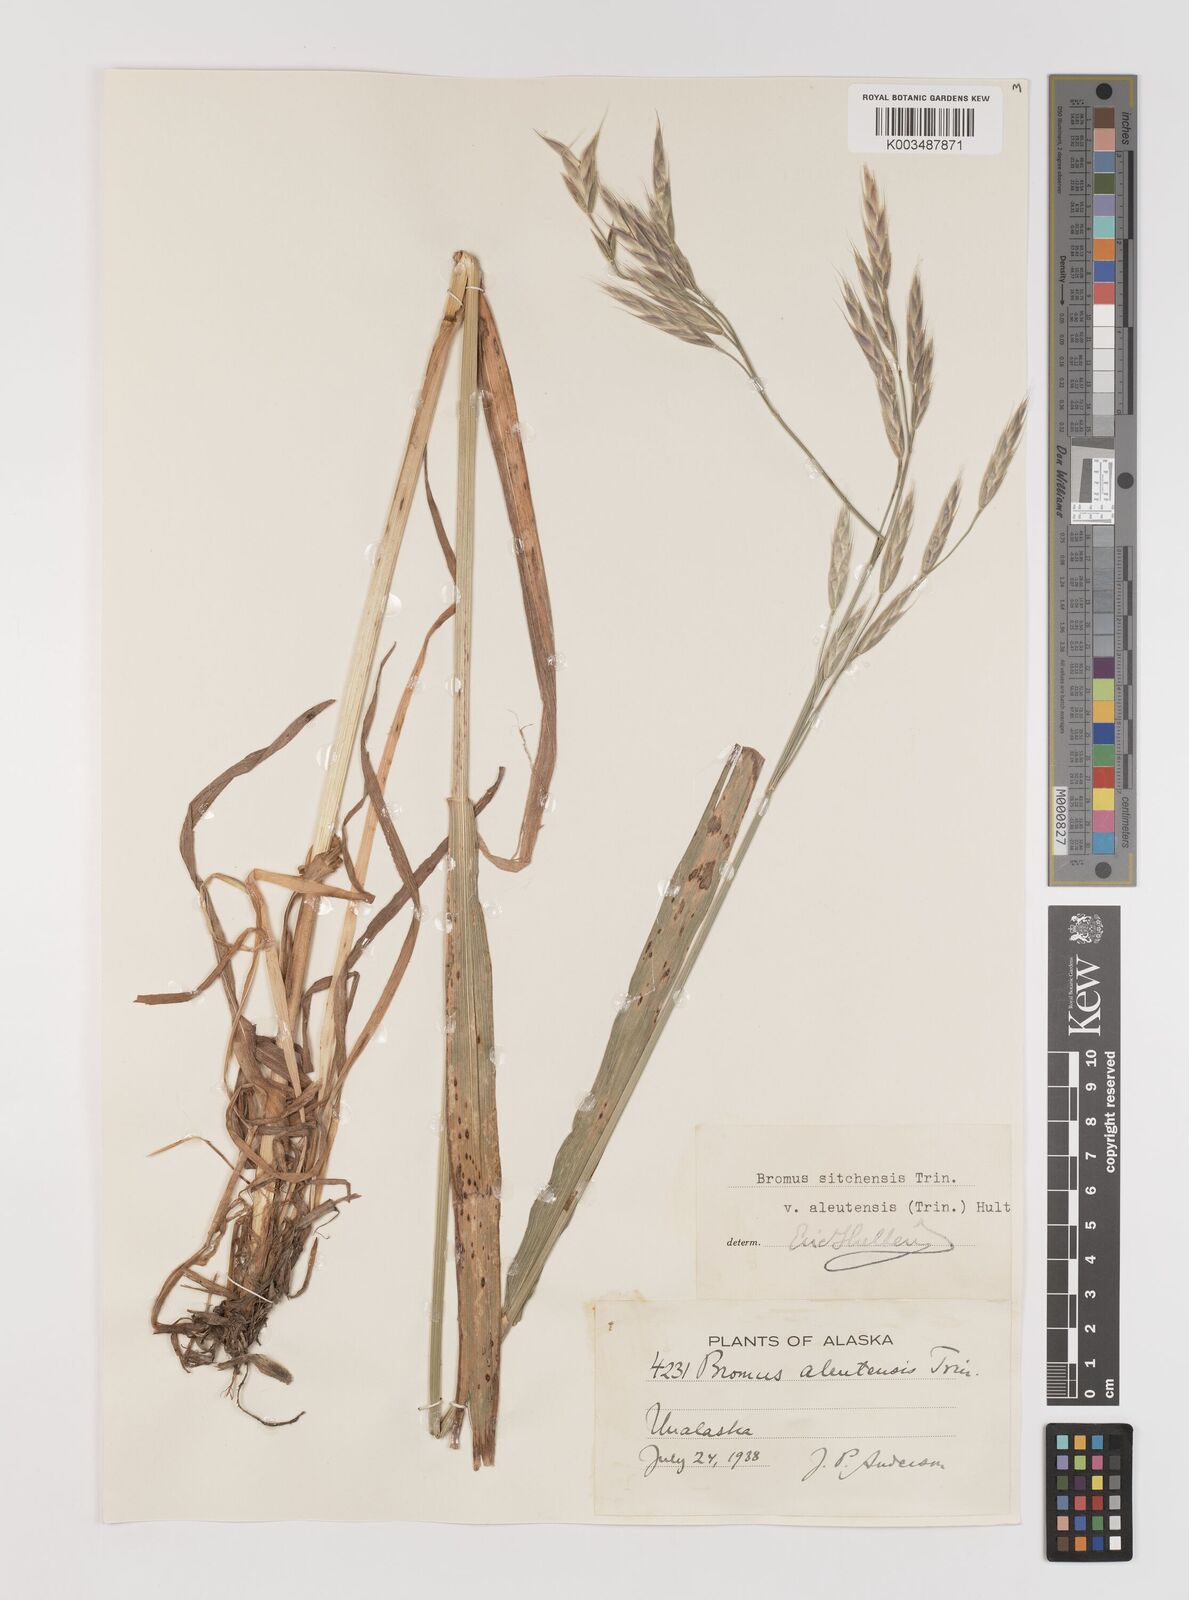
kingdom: Plantae
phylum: Tracheophyta
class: Liliopsida
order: Poales
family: Poaceae
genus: Bromus
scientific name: Bromus sitchensis
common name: Sitka brome
